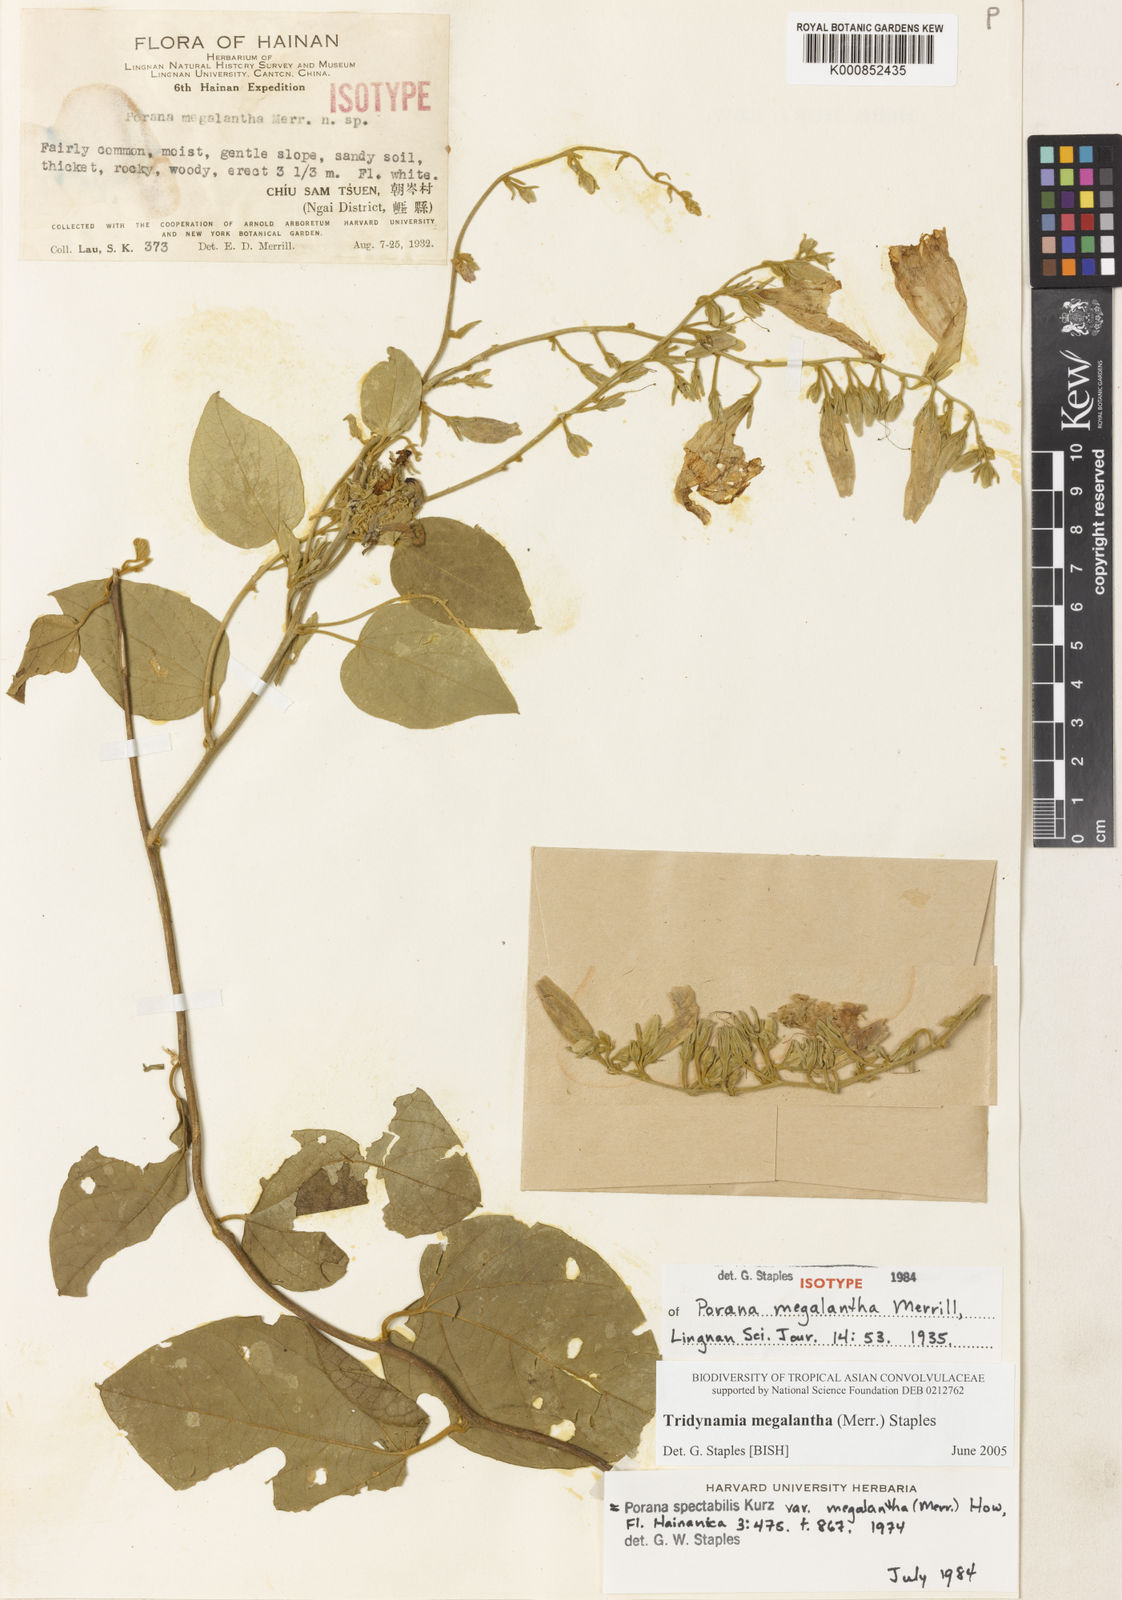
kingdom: Plantae
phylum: Tracheophyta
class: Magnoliopsida
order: Solanales
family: Convolvulaceae
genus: Tridynamia
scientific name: Tridynamia megalantha
